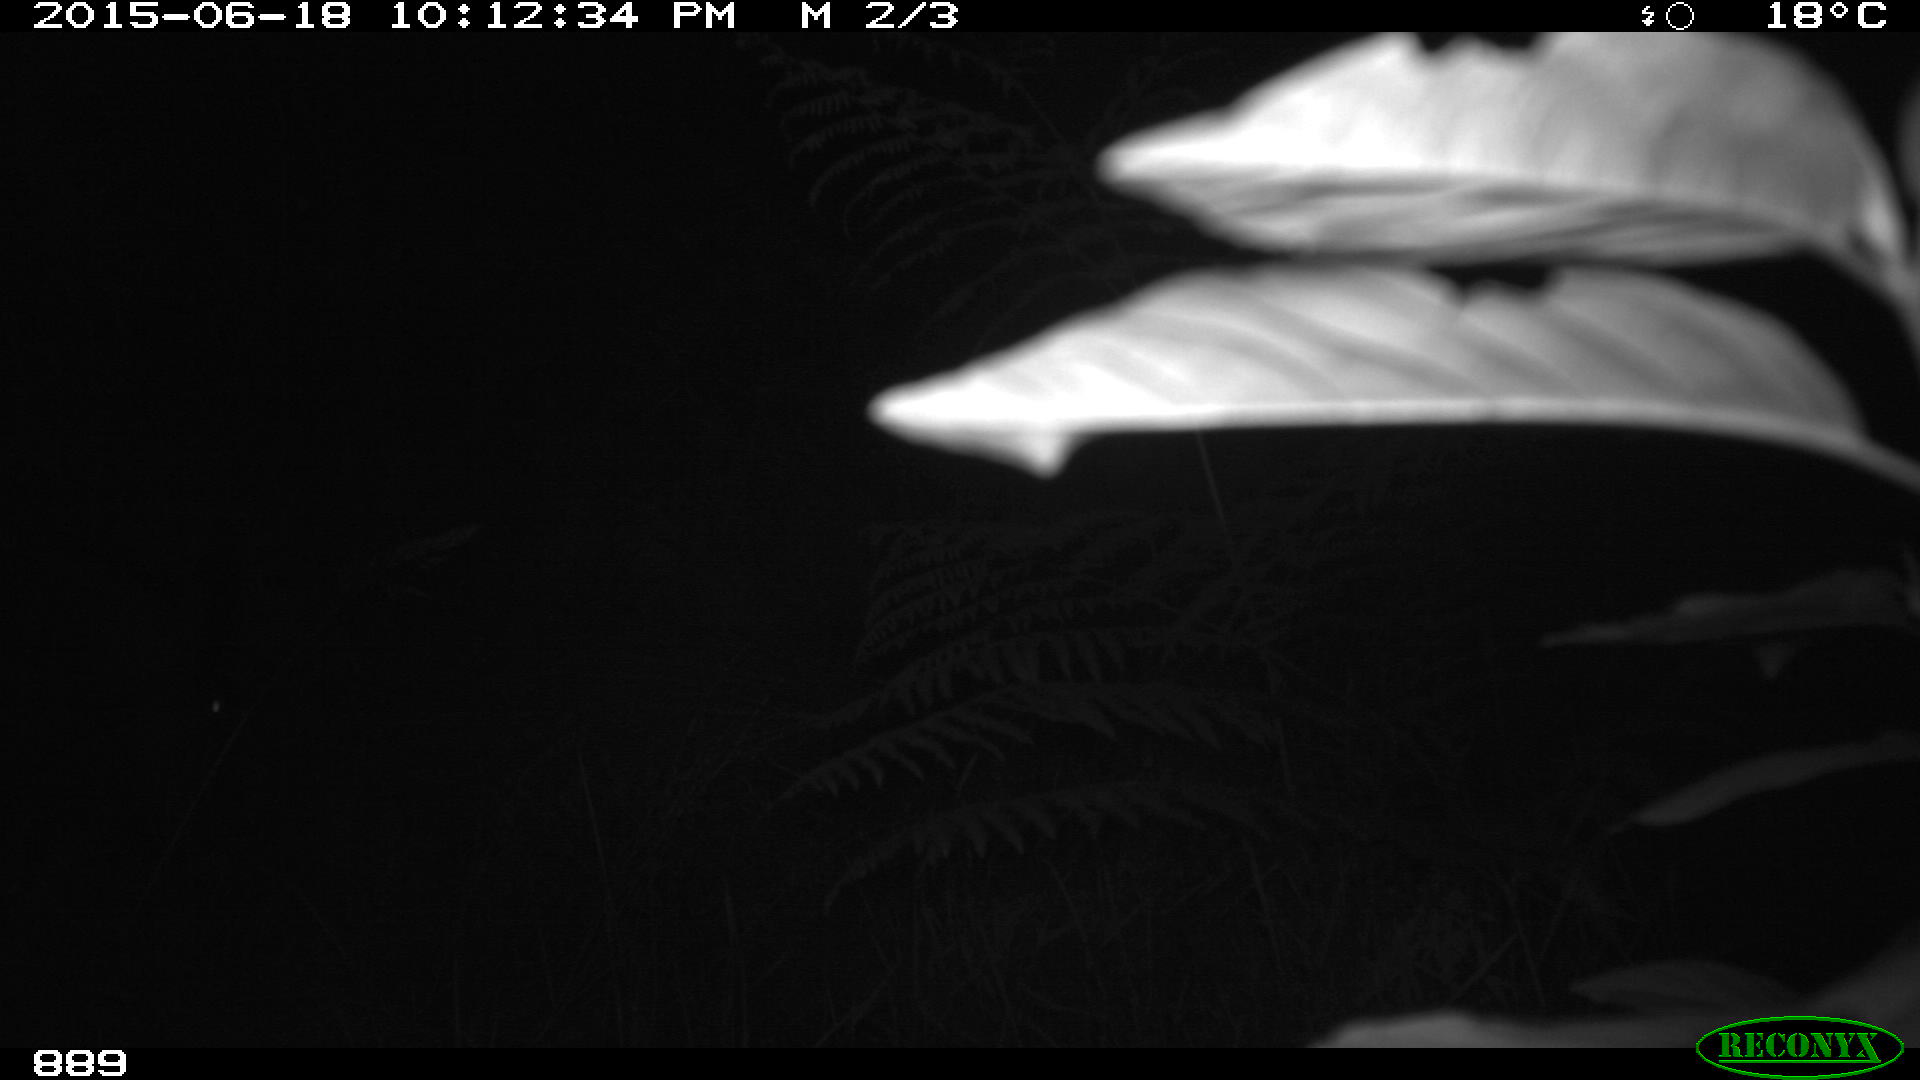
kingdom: Animalia
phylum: Chordata
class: Mammalia
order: Artiodactyla
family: Suidae
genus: Sus
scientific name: Sus scrofa
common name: Wild boar
